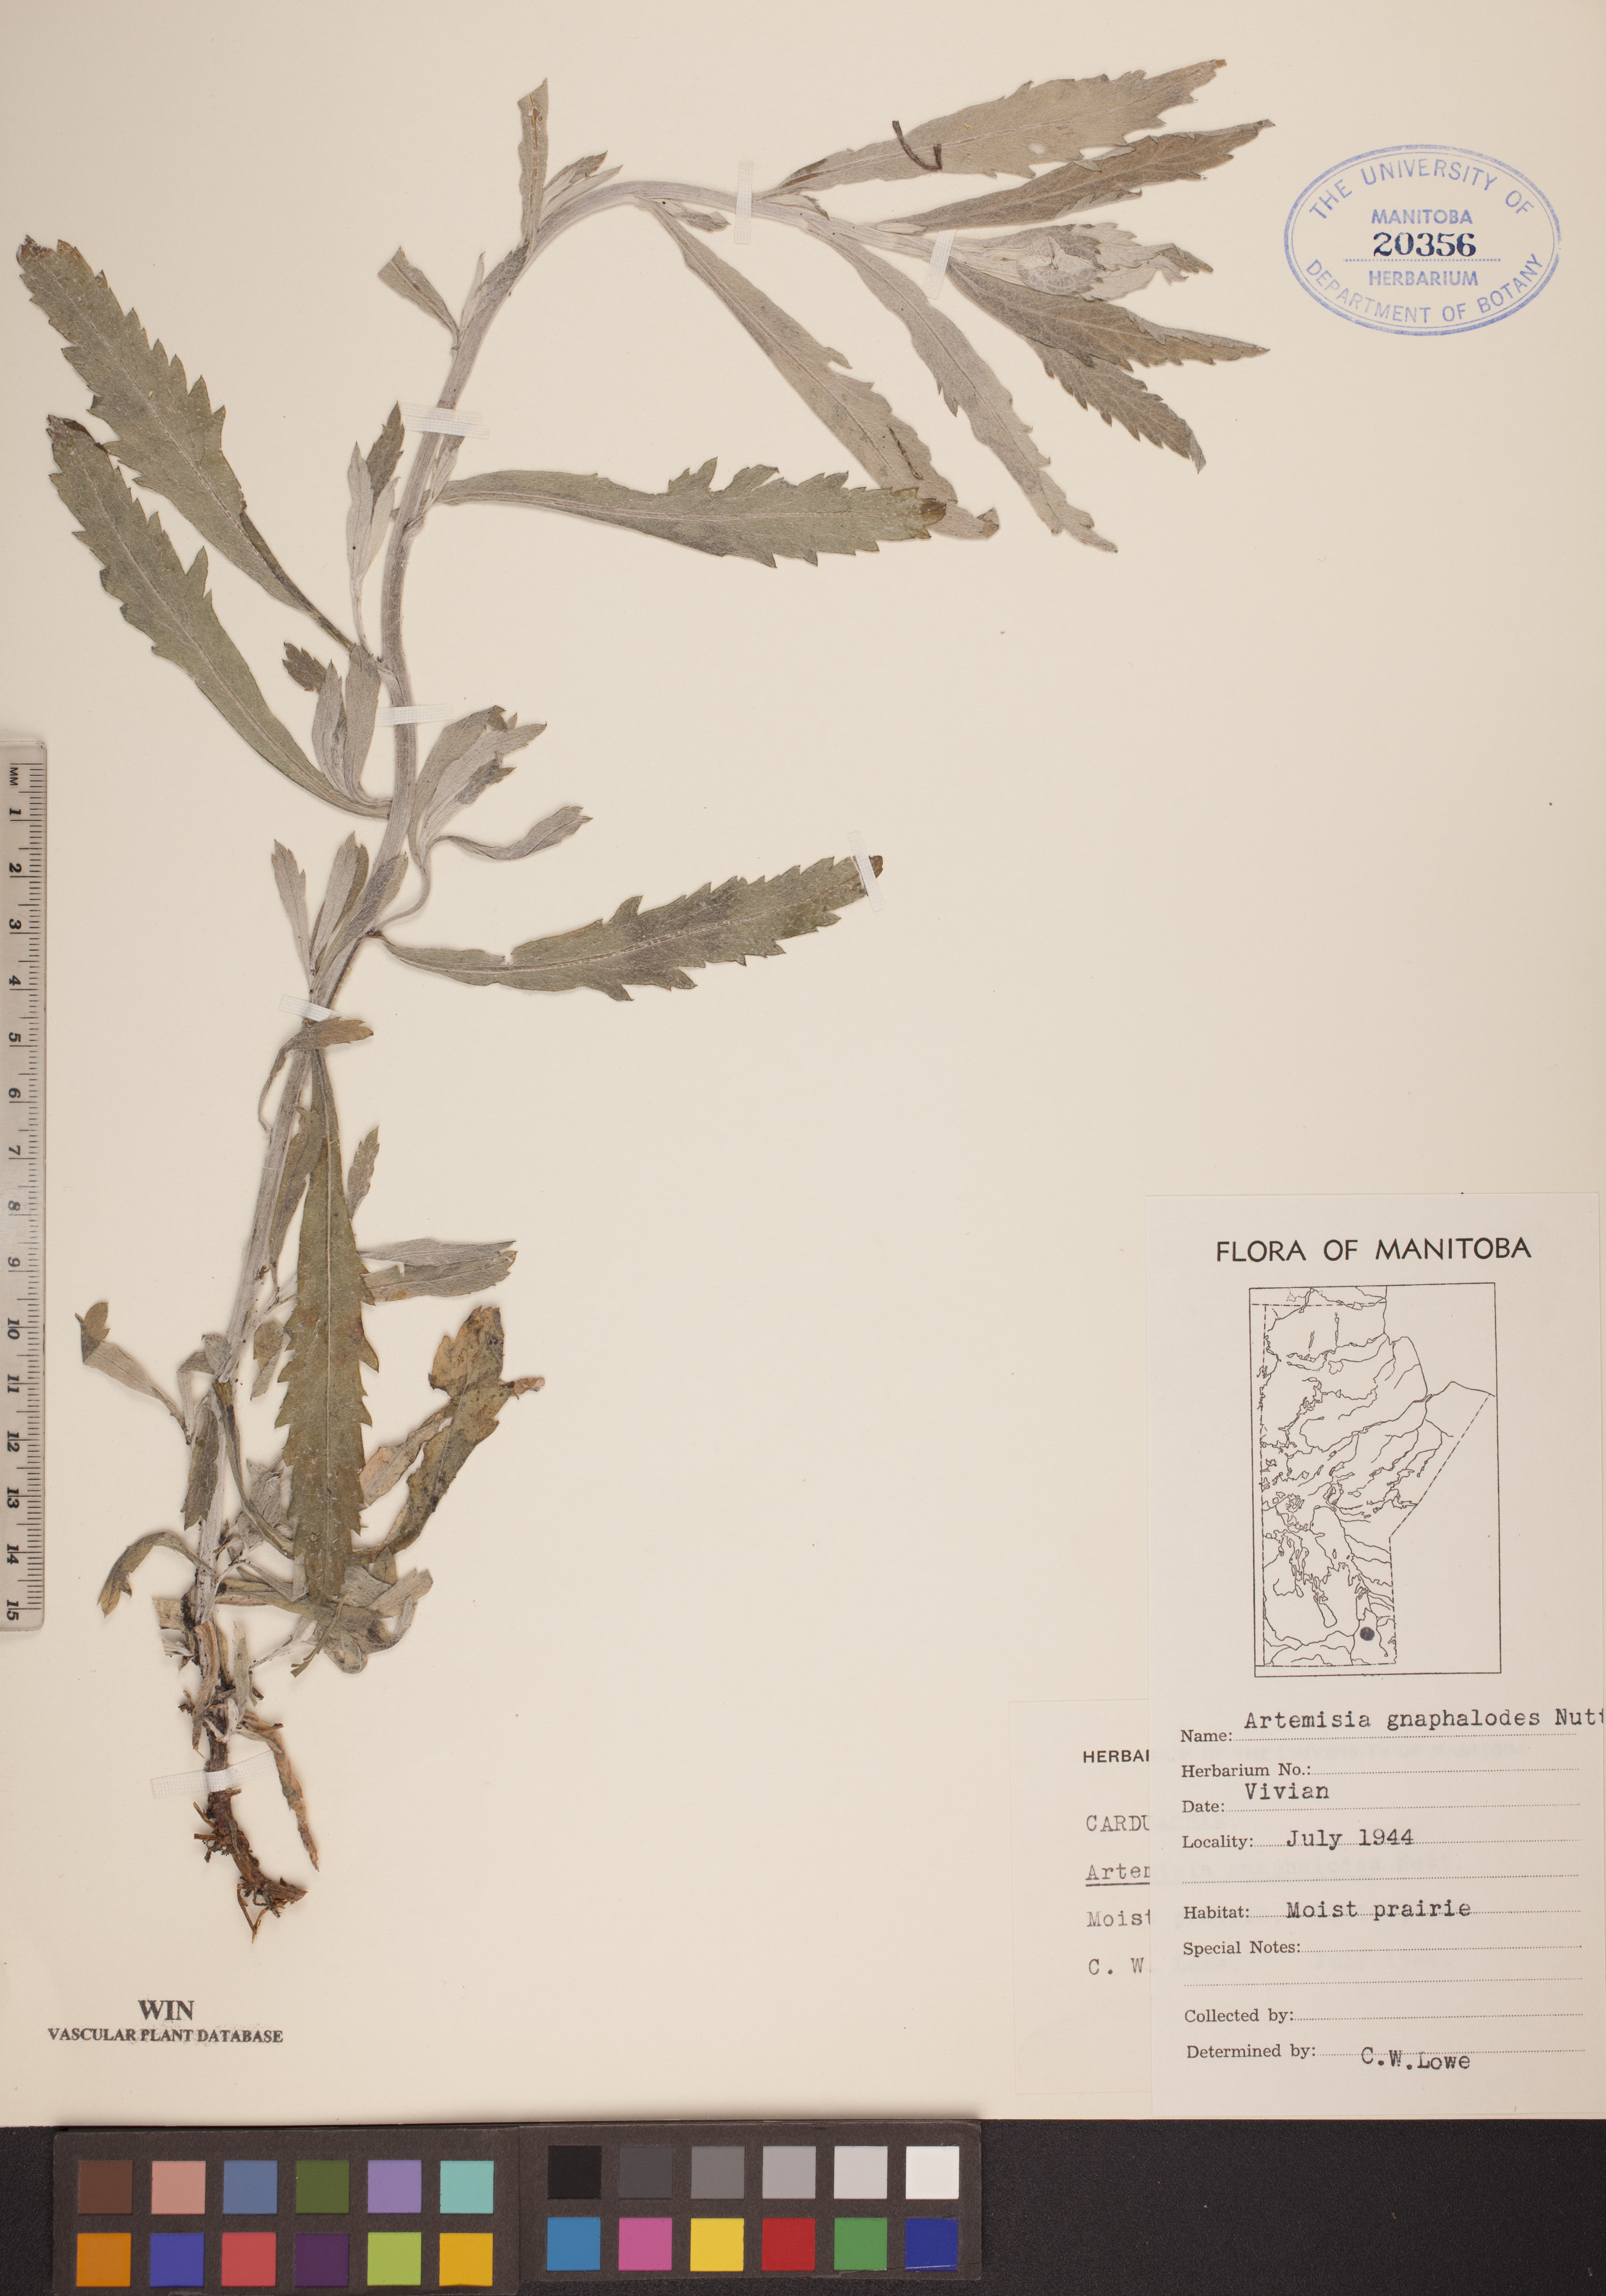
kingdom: Plantae
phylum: Tracheophyta
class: Magnoliopsida
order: Asterales
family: Asteraceae
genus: Artemisia
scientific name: Artemisia ludoviciana
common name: Western mugwort
